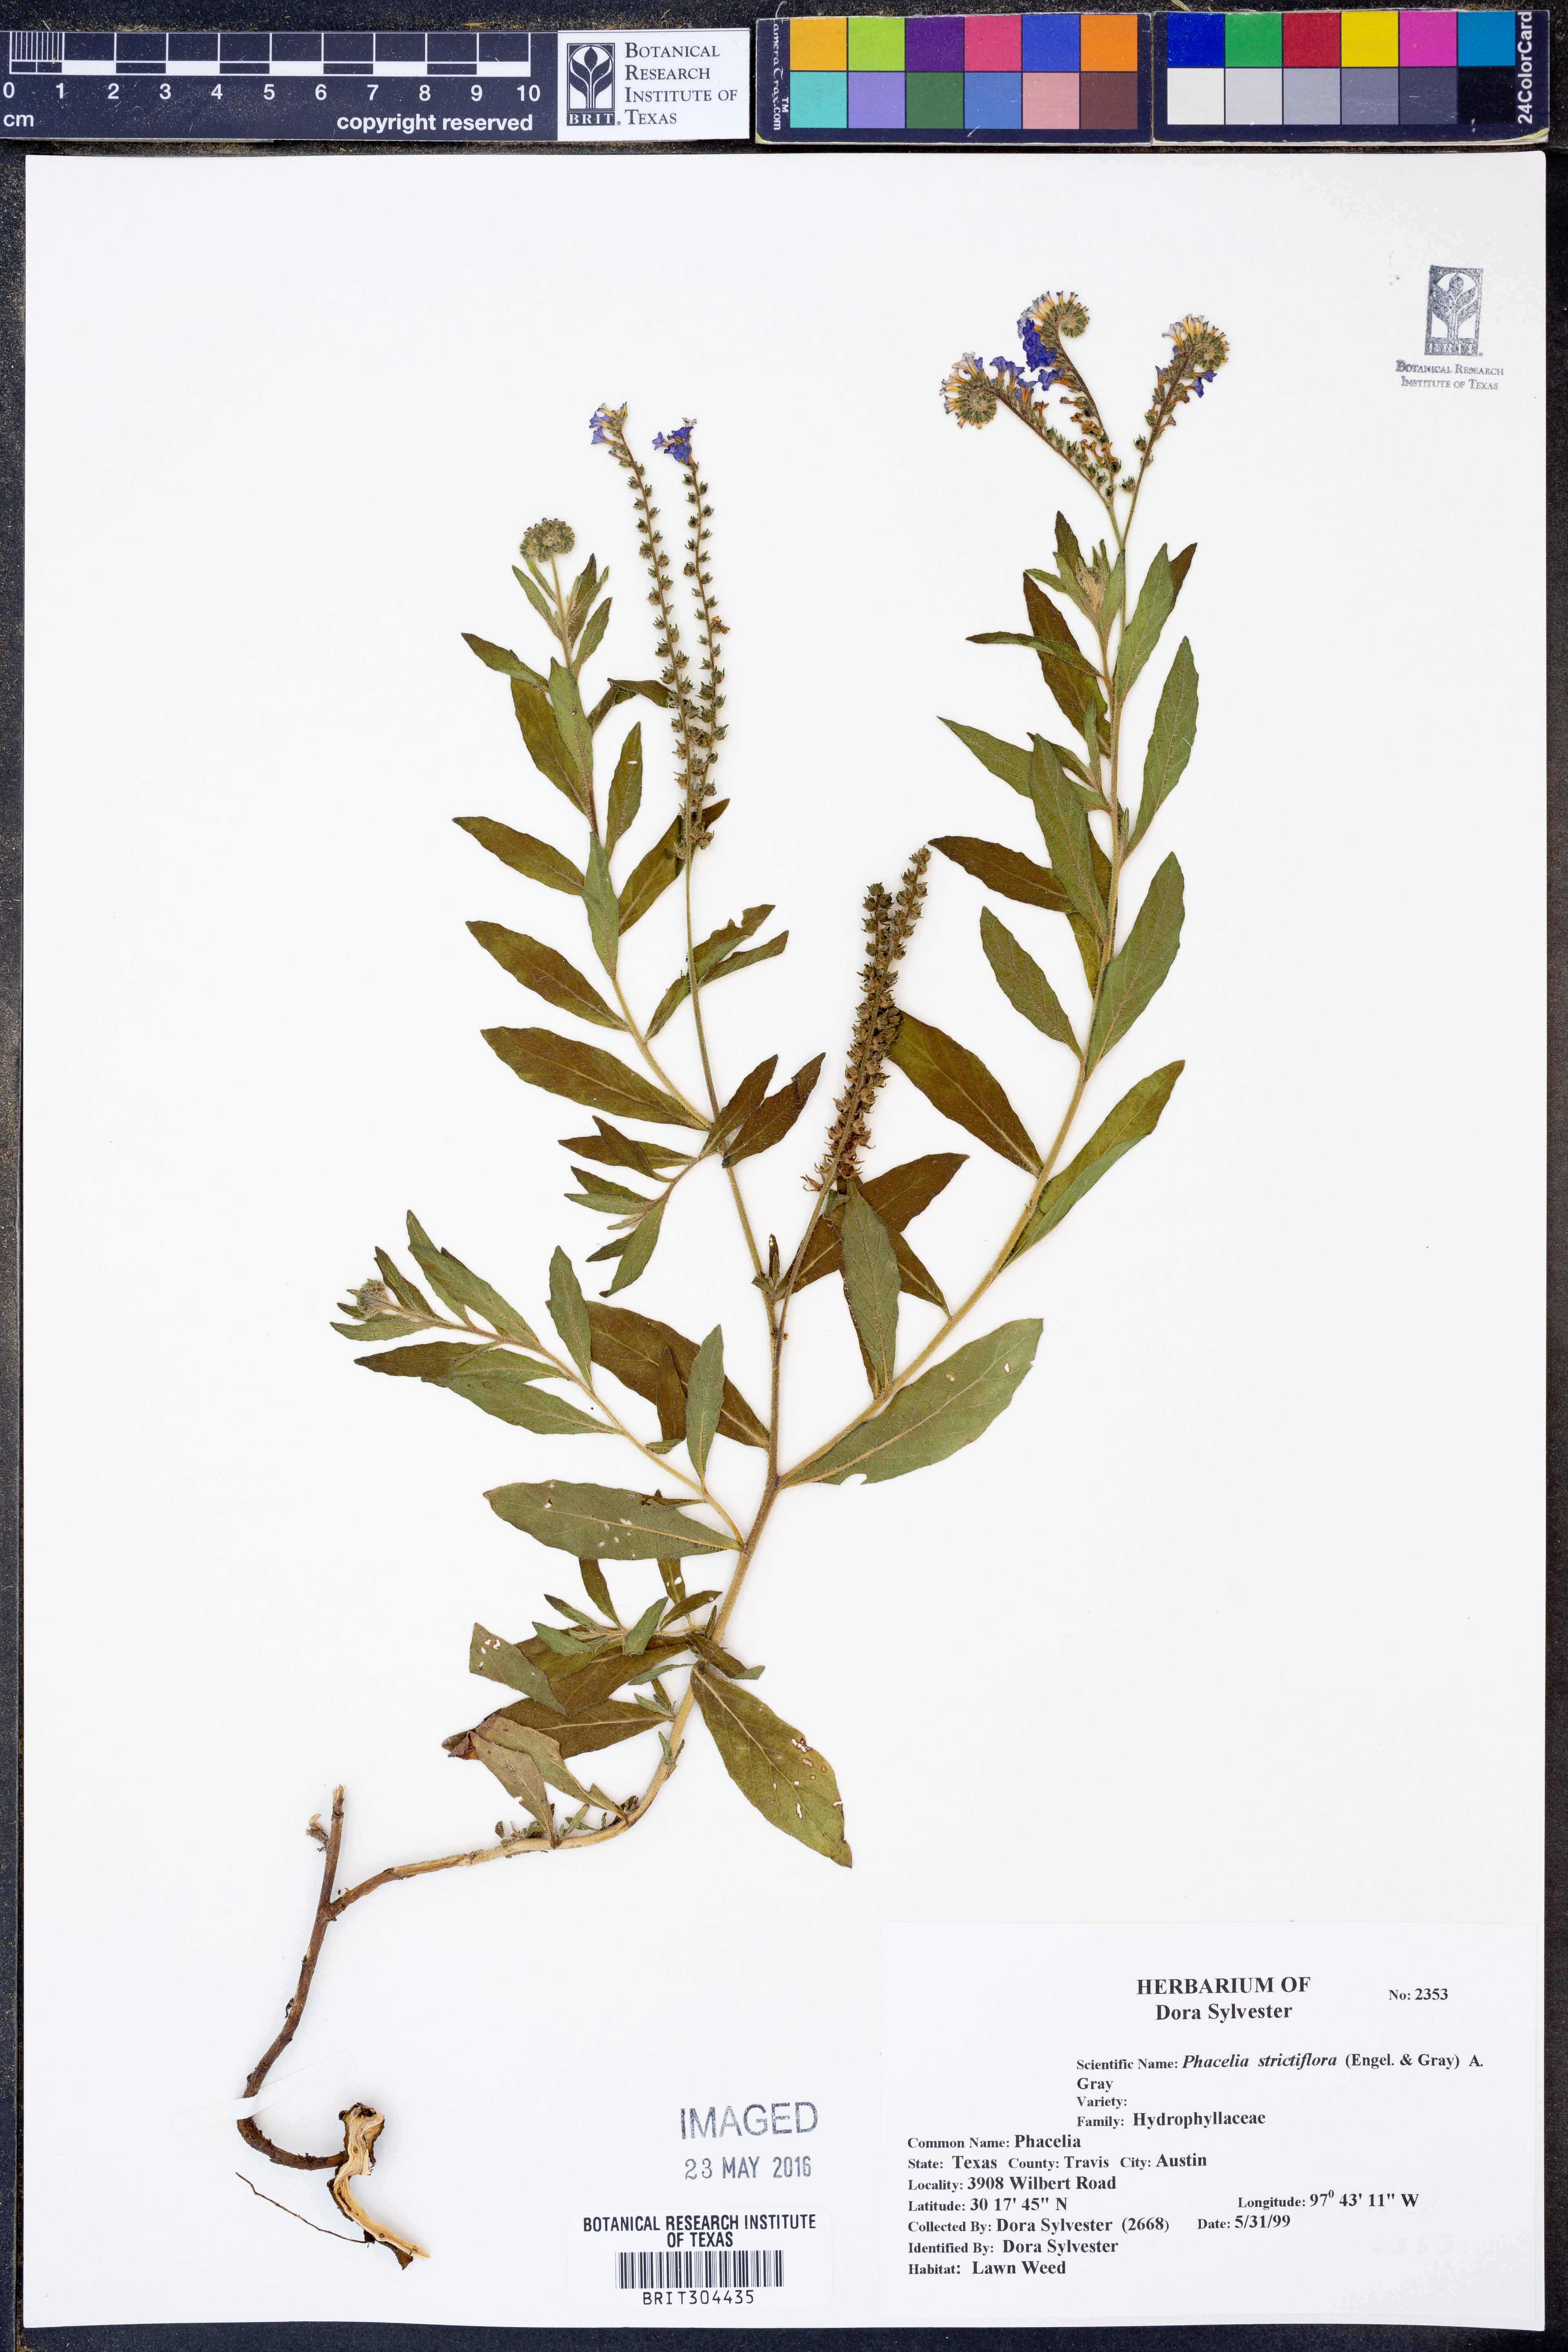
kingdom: Plantae
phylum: Tracheophyta
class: Magnoliopsida
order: Boraginales
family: Hydrophyllaceae
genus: Phacelia
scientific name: Phacelia strictiflora
